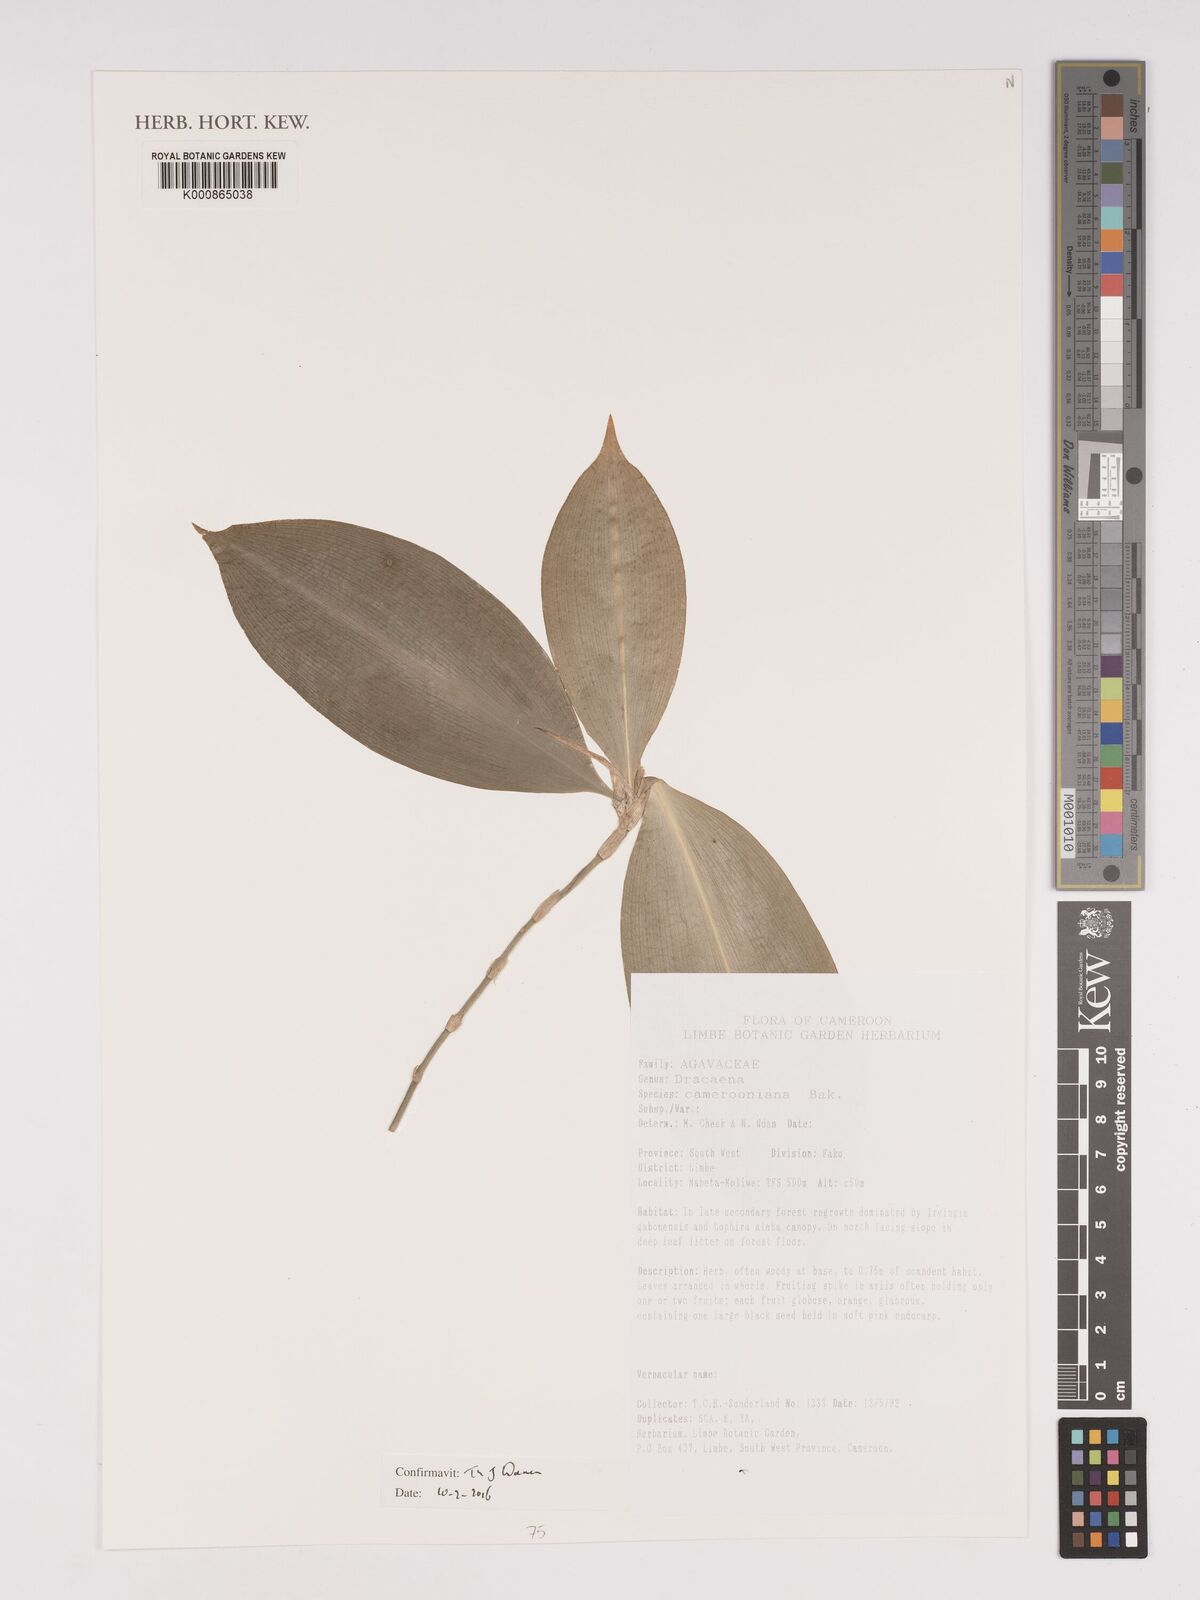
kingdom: Plantae
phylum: Tracheophyta
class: Liliopsida
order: Asparagales
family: Asparagaceae
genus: Dracaena
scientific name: Dracaena camerooniana
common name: Dragon tree
